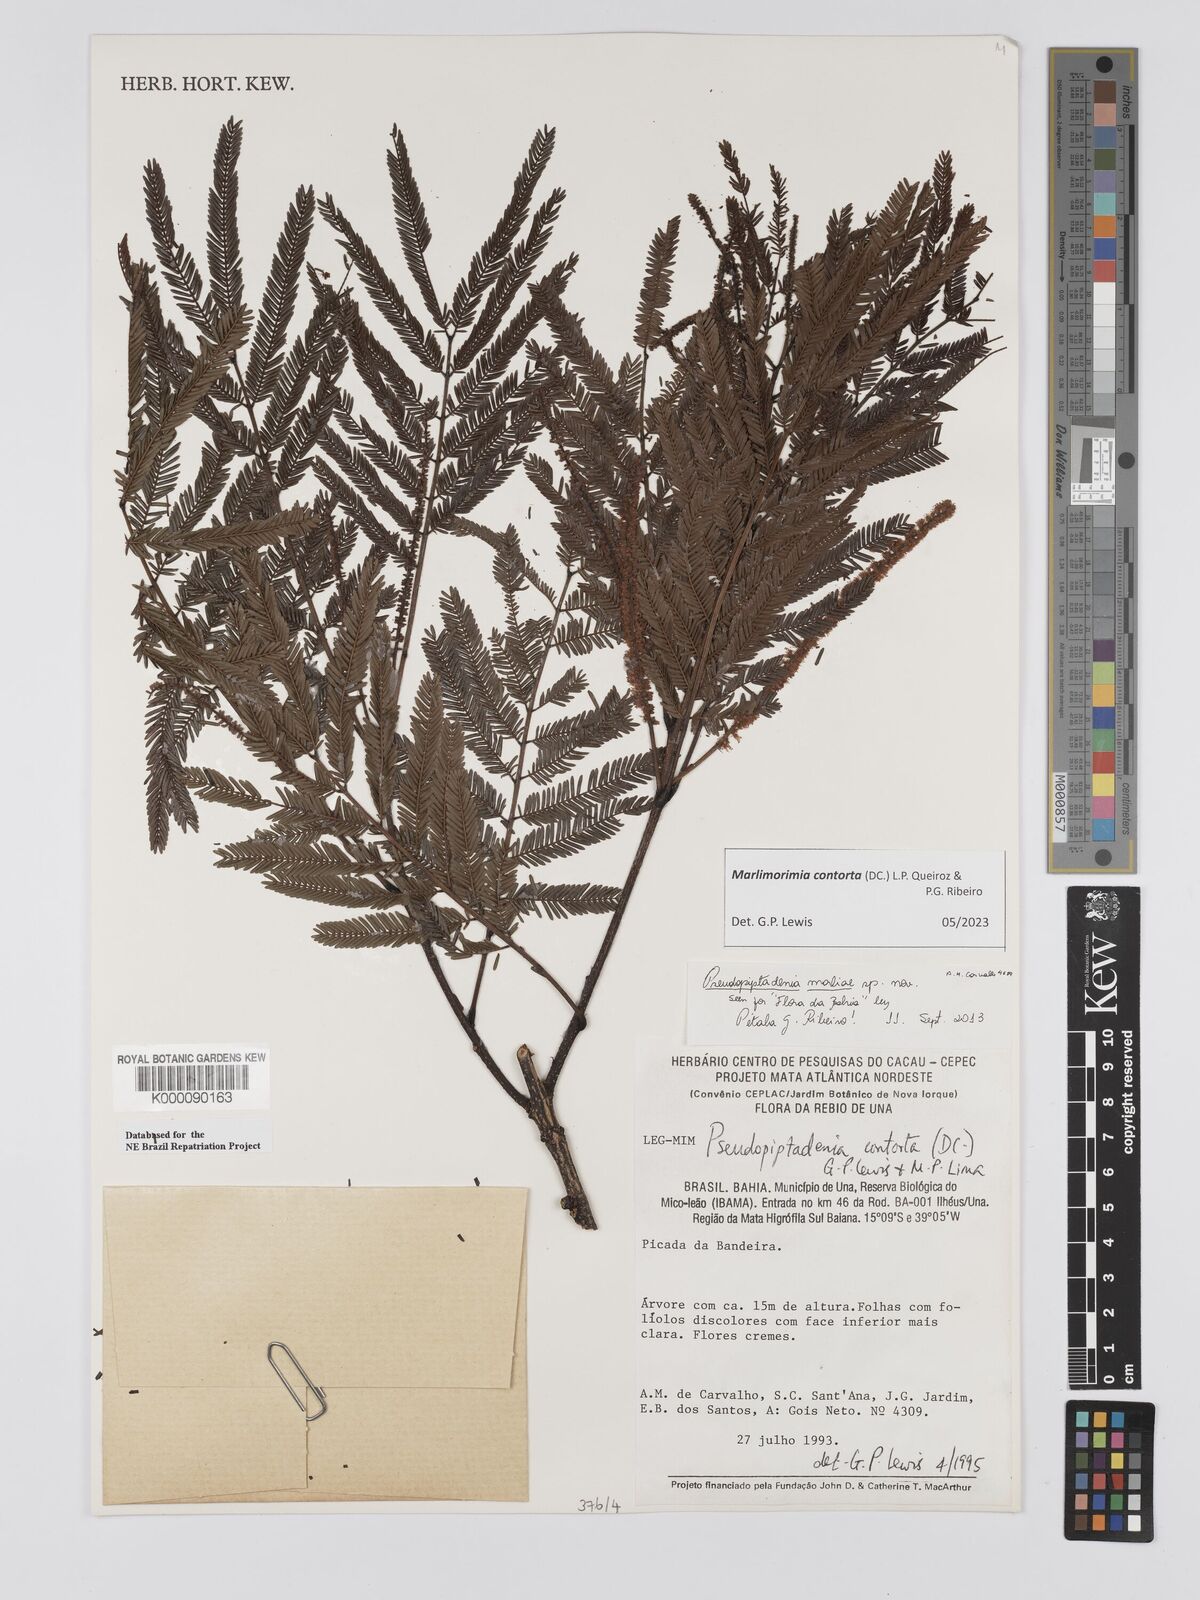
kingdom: Plantae
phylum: Tracheophyta
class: Magnoliopsida
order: Fabales
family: Fabaceae
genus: Pseudopiptadenia
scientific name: Pseudopiptadenia contorta
